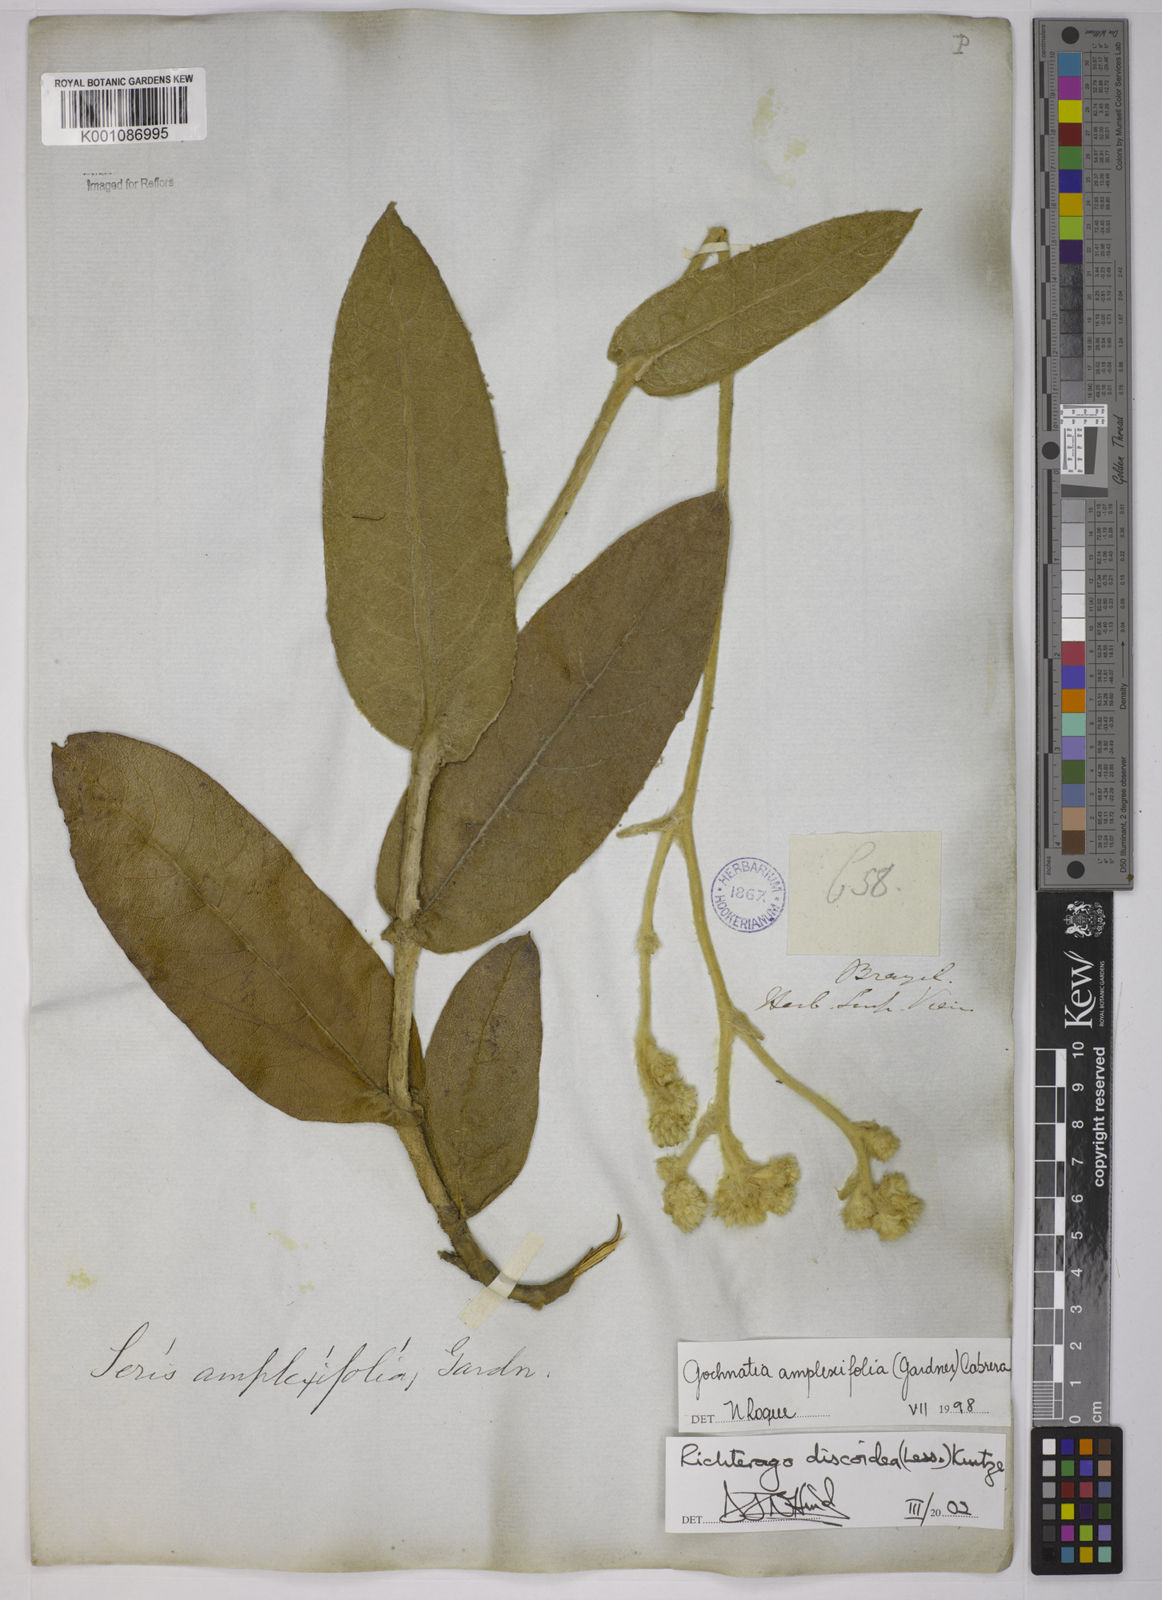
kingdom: Plantae
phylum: Tracheophyta
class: Magnoliopsida
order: Asterales
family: Asteraceae
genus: Richterago
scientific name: Richterago amplexifolia
